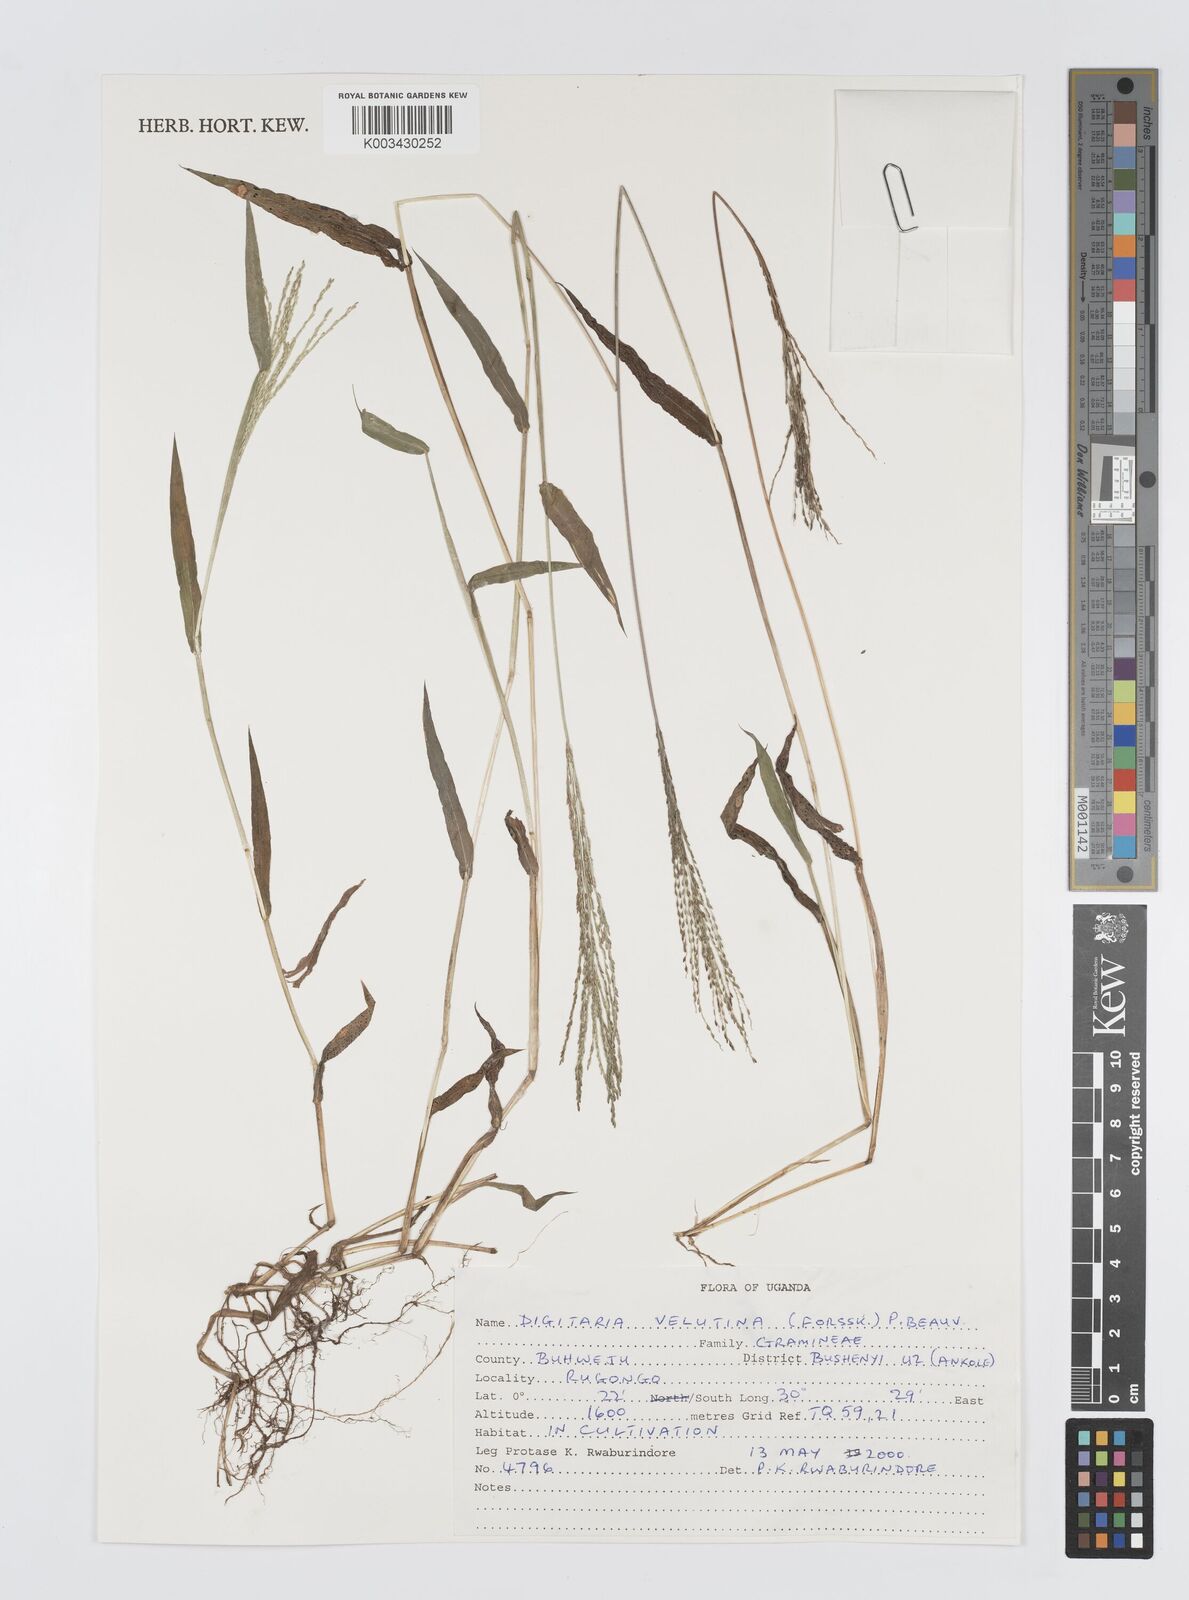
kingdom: Plantae
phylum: Tracheophyta
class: Liliopsida
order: Poales
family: Poaceae
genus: Digitaria
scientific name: Digitaria velutina
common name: Long-plume finger grass
